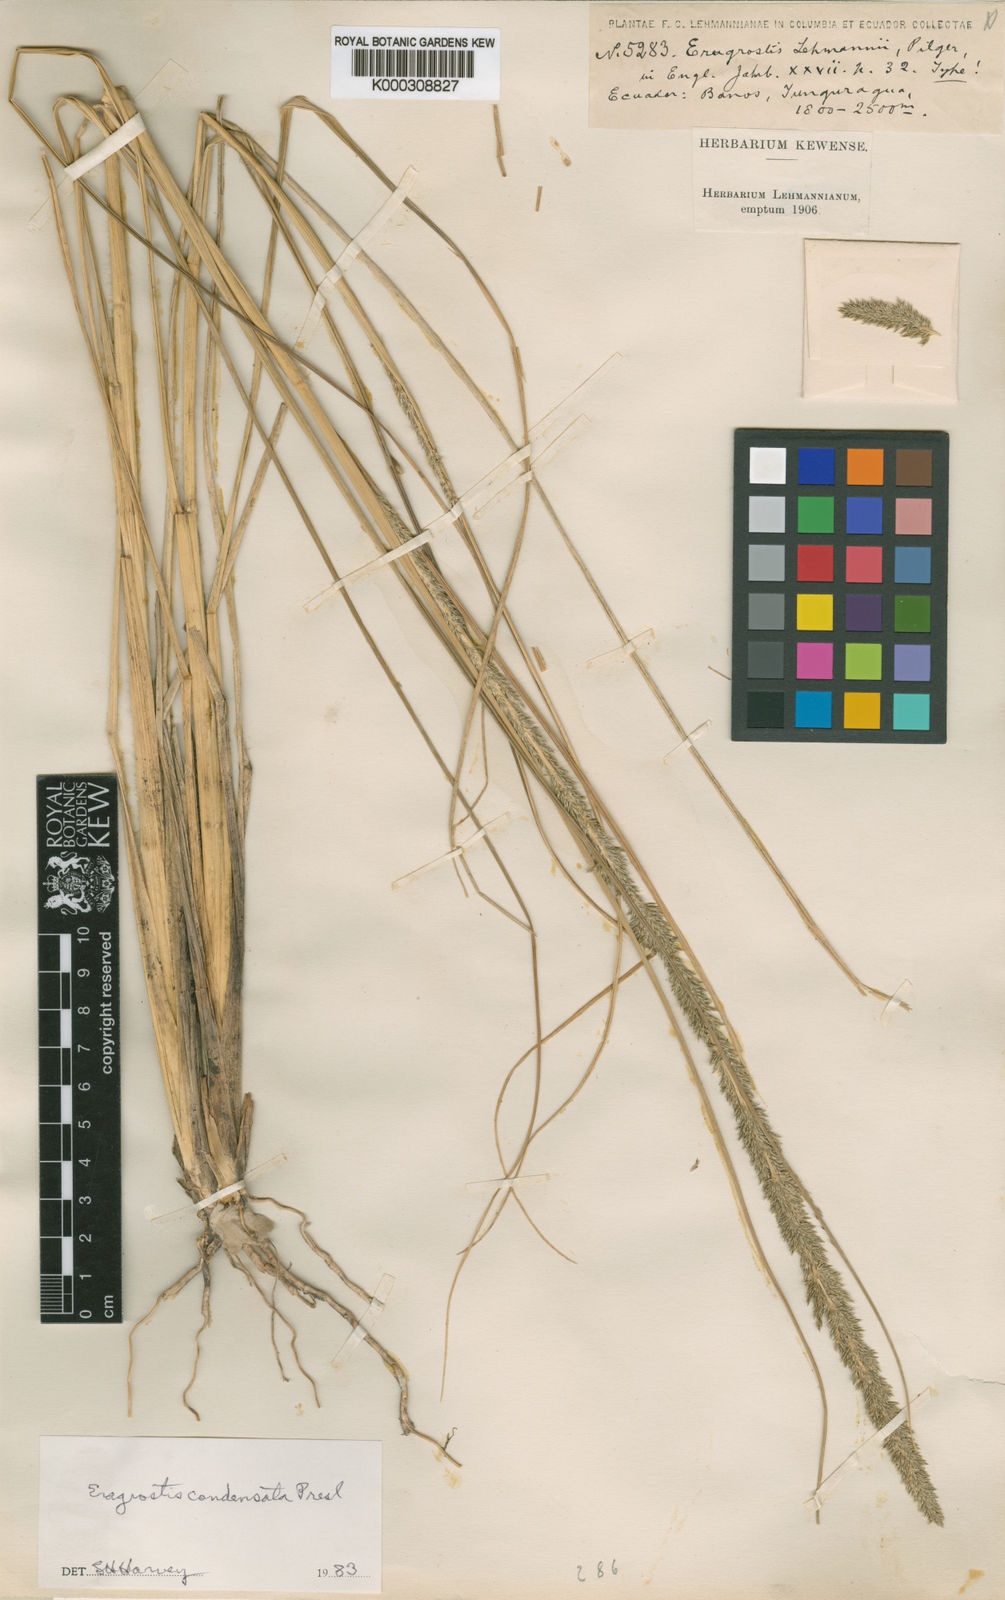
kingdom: Plantae
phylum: Tracheophyta
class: Liliopsida
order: Poales
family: Poaceae
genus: Eragrostis
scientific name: Eragrostis condensata
